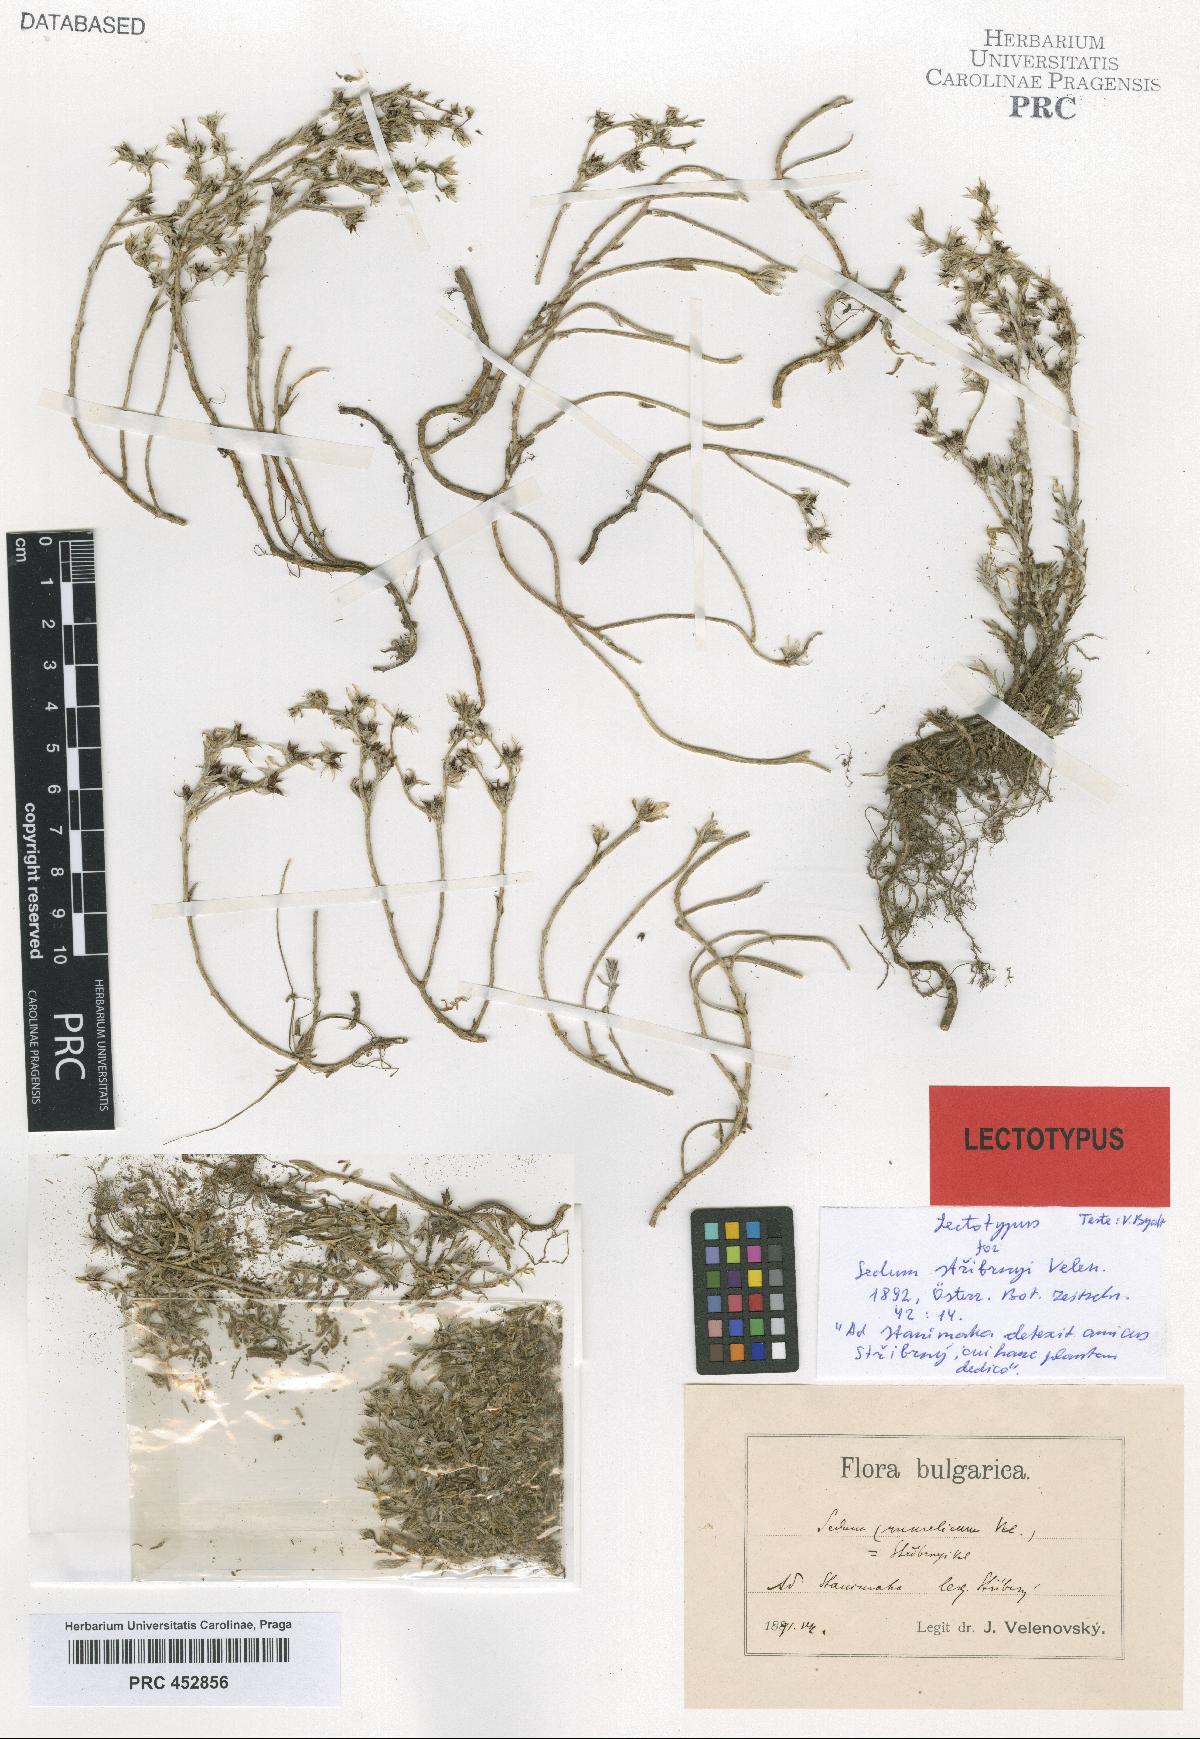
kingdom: Plantae
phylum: Tracheophyta
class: Magnoliopsida
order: Saxifragales
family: Crassulaceae
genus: Sedum
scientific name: Sedum urvillei
